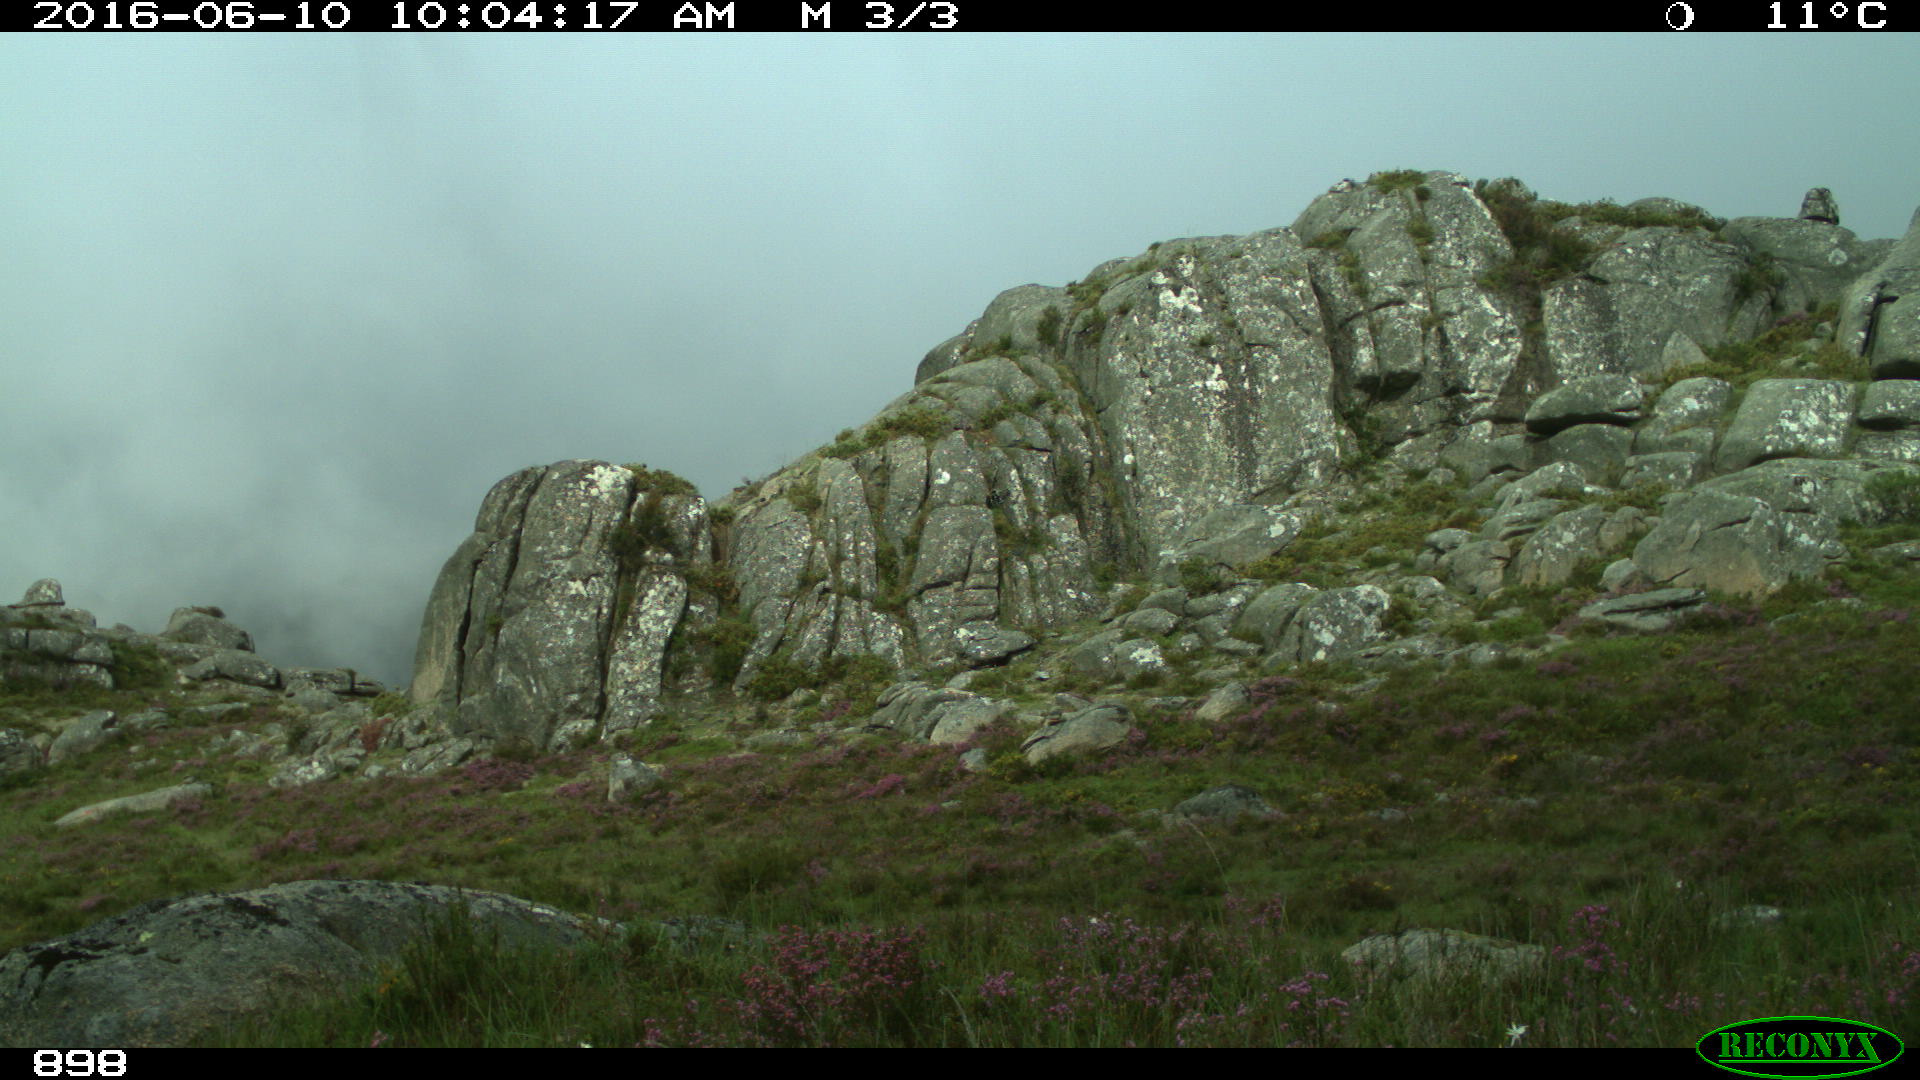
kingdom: Animalia
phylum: Chordata
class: Mammalia
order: Perissodactyla
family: Equidae
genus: Equus
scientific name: Equus caballus
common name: Horse
